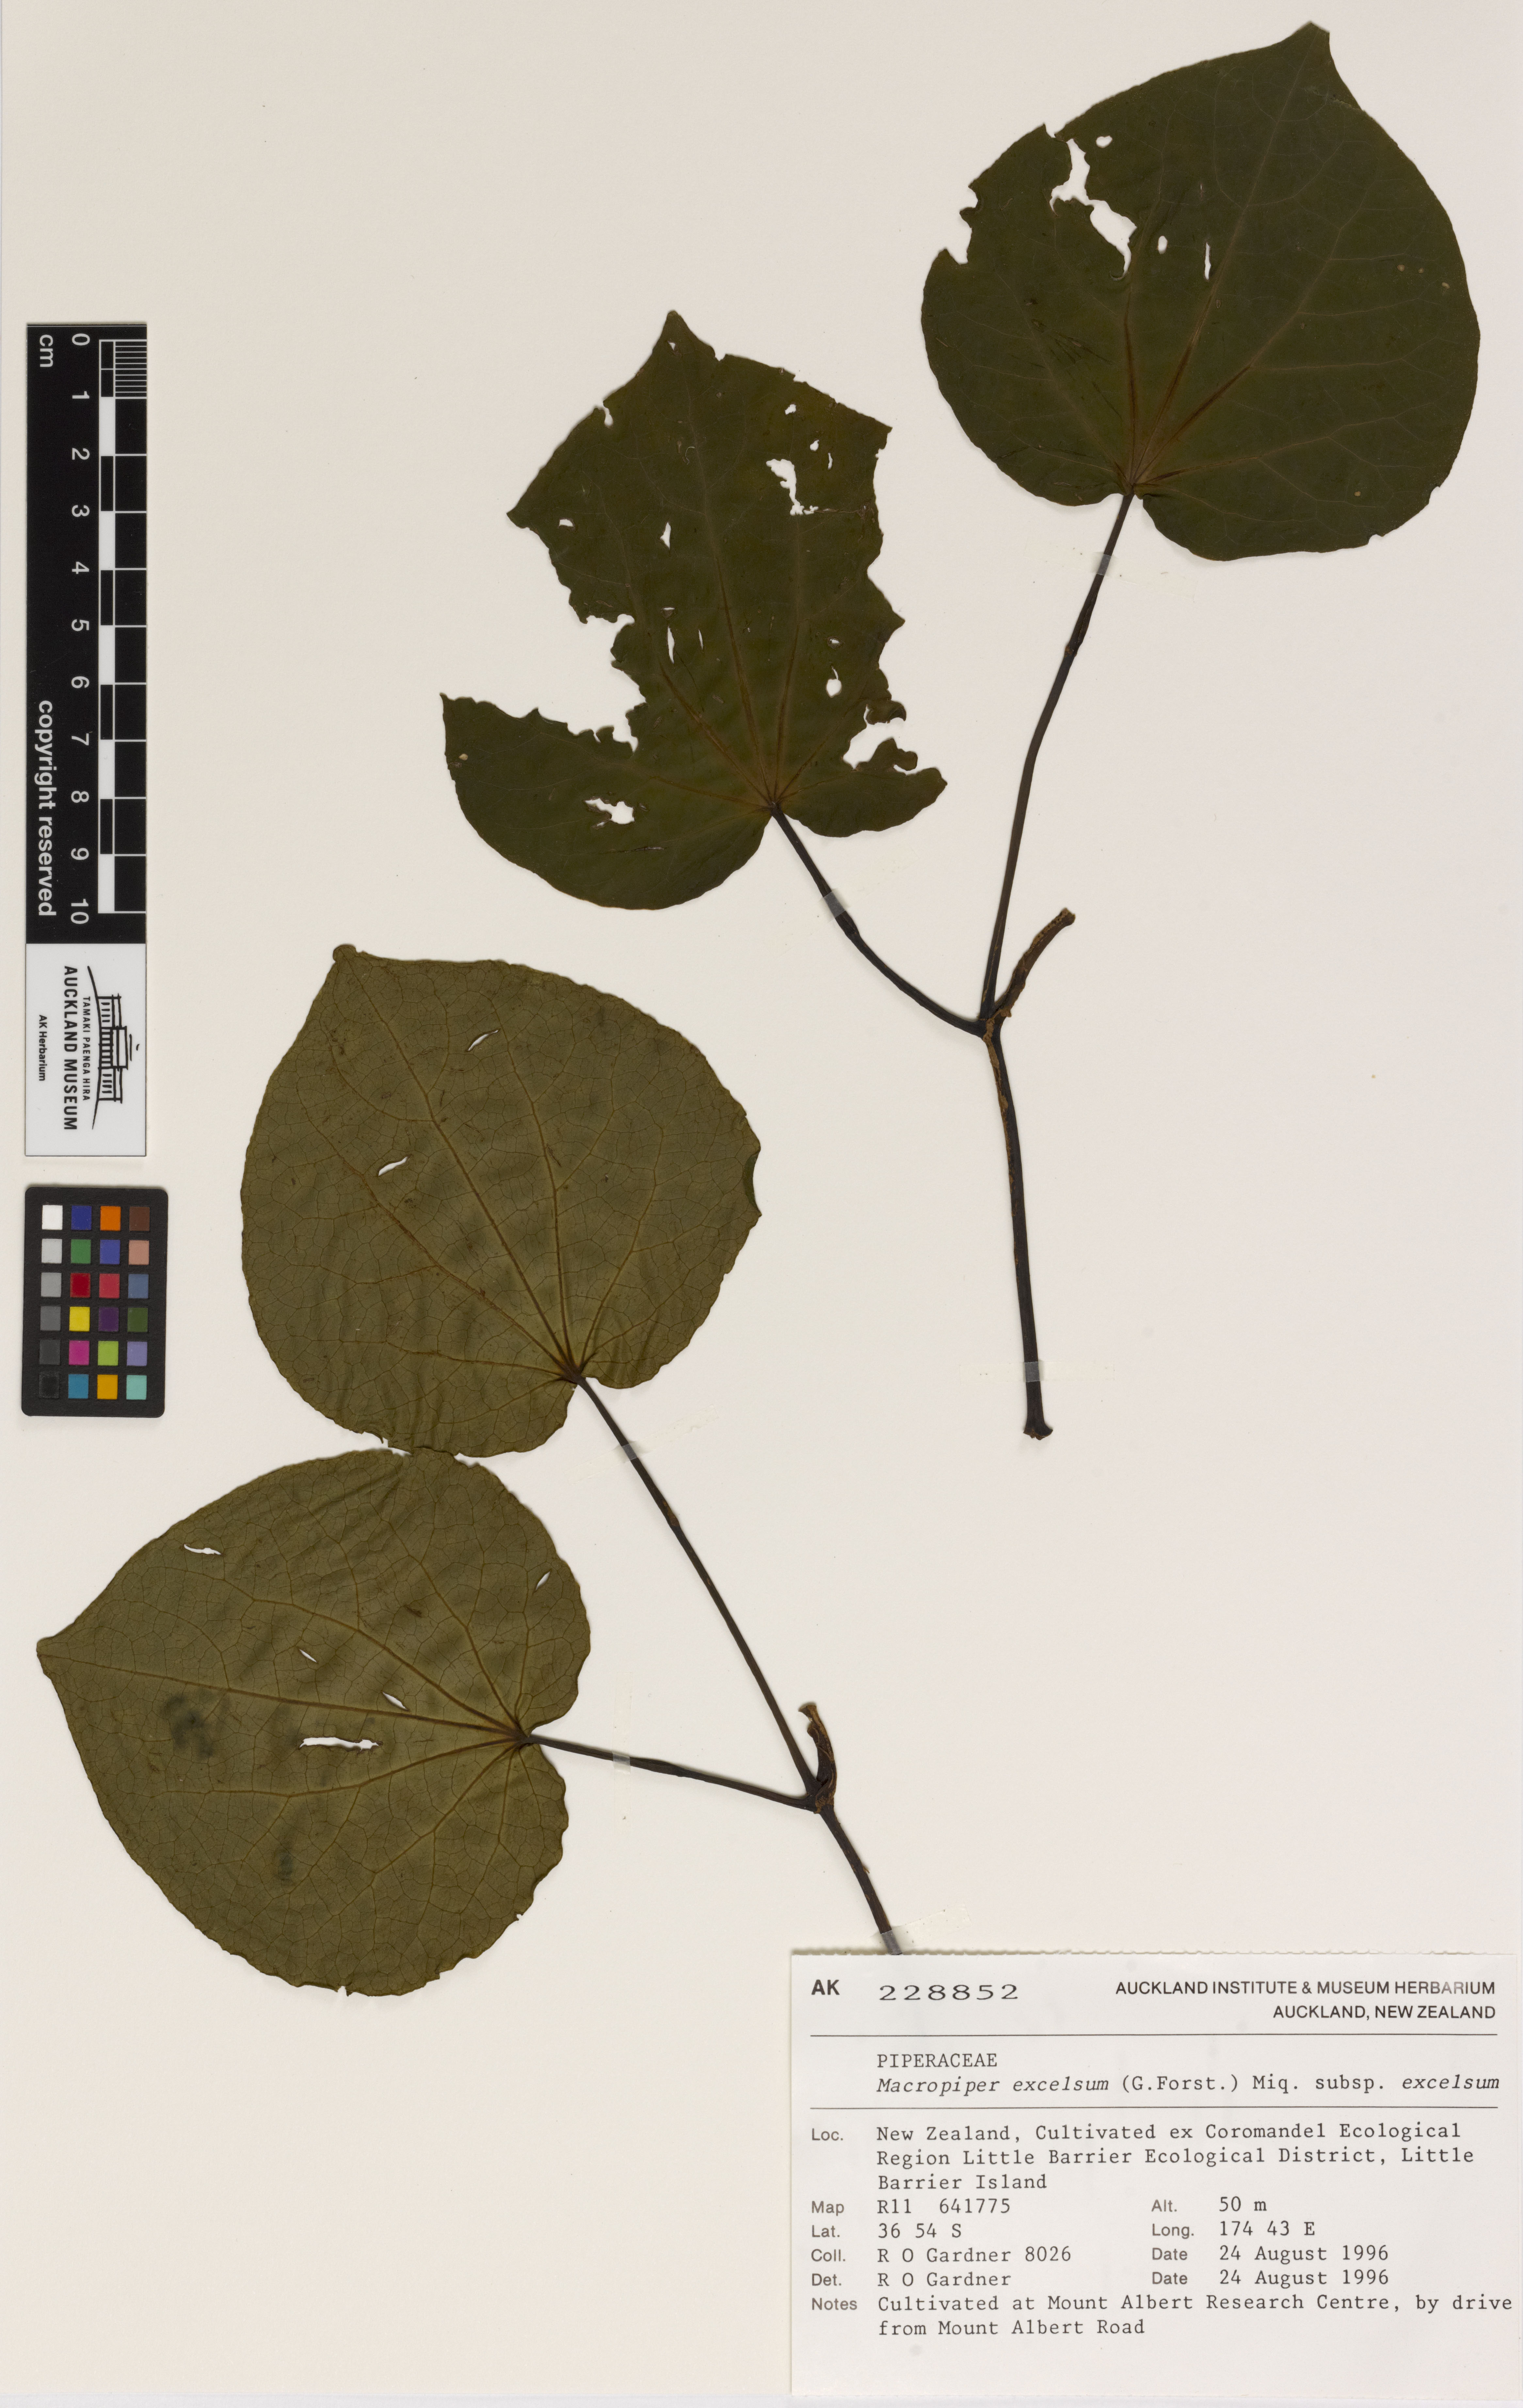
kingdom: Plantae
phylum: Tracheophyta
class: Magnoliopsida
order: Piperales
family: Piperaceae
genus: Macropiper
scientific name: Macropiper excelsum
